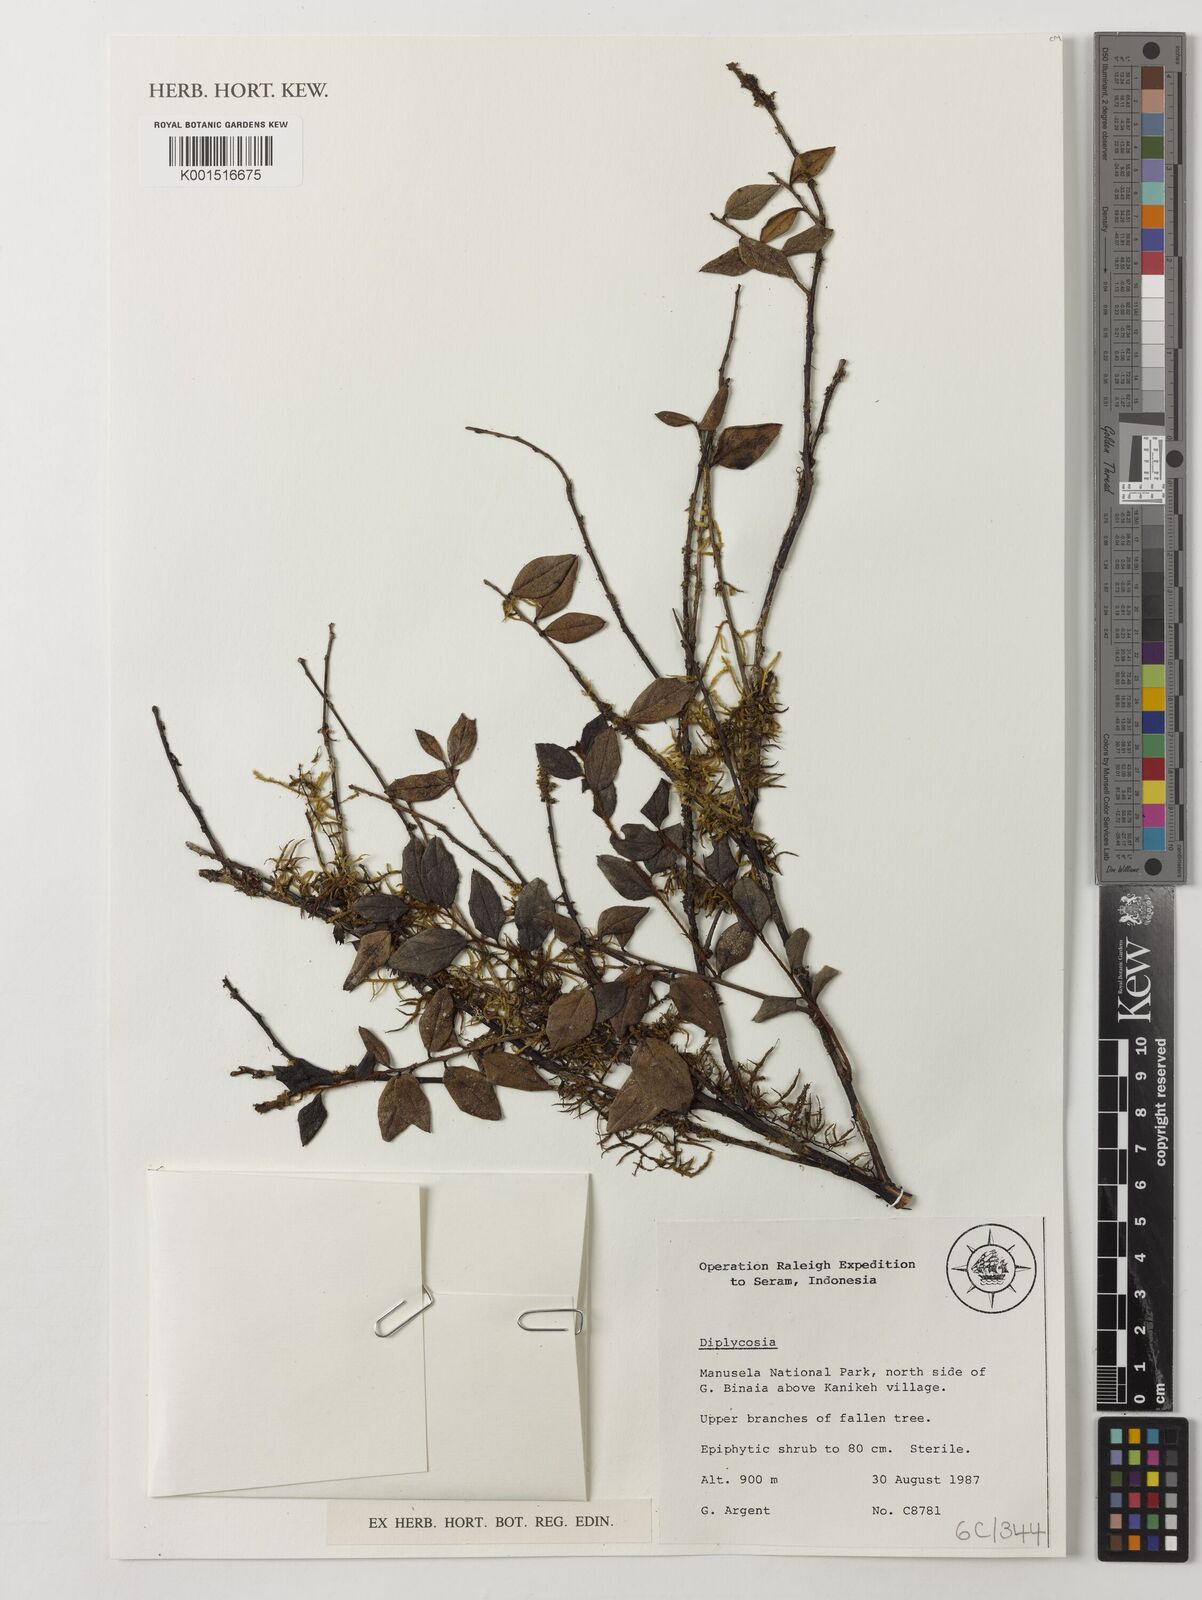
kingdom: Plantae
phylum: Tracheophyta
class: Magnoliopsida
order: Ericales
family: Ericaceae
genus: Gaultheria
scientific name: Gaultheria
